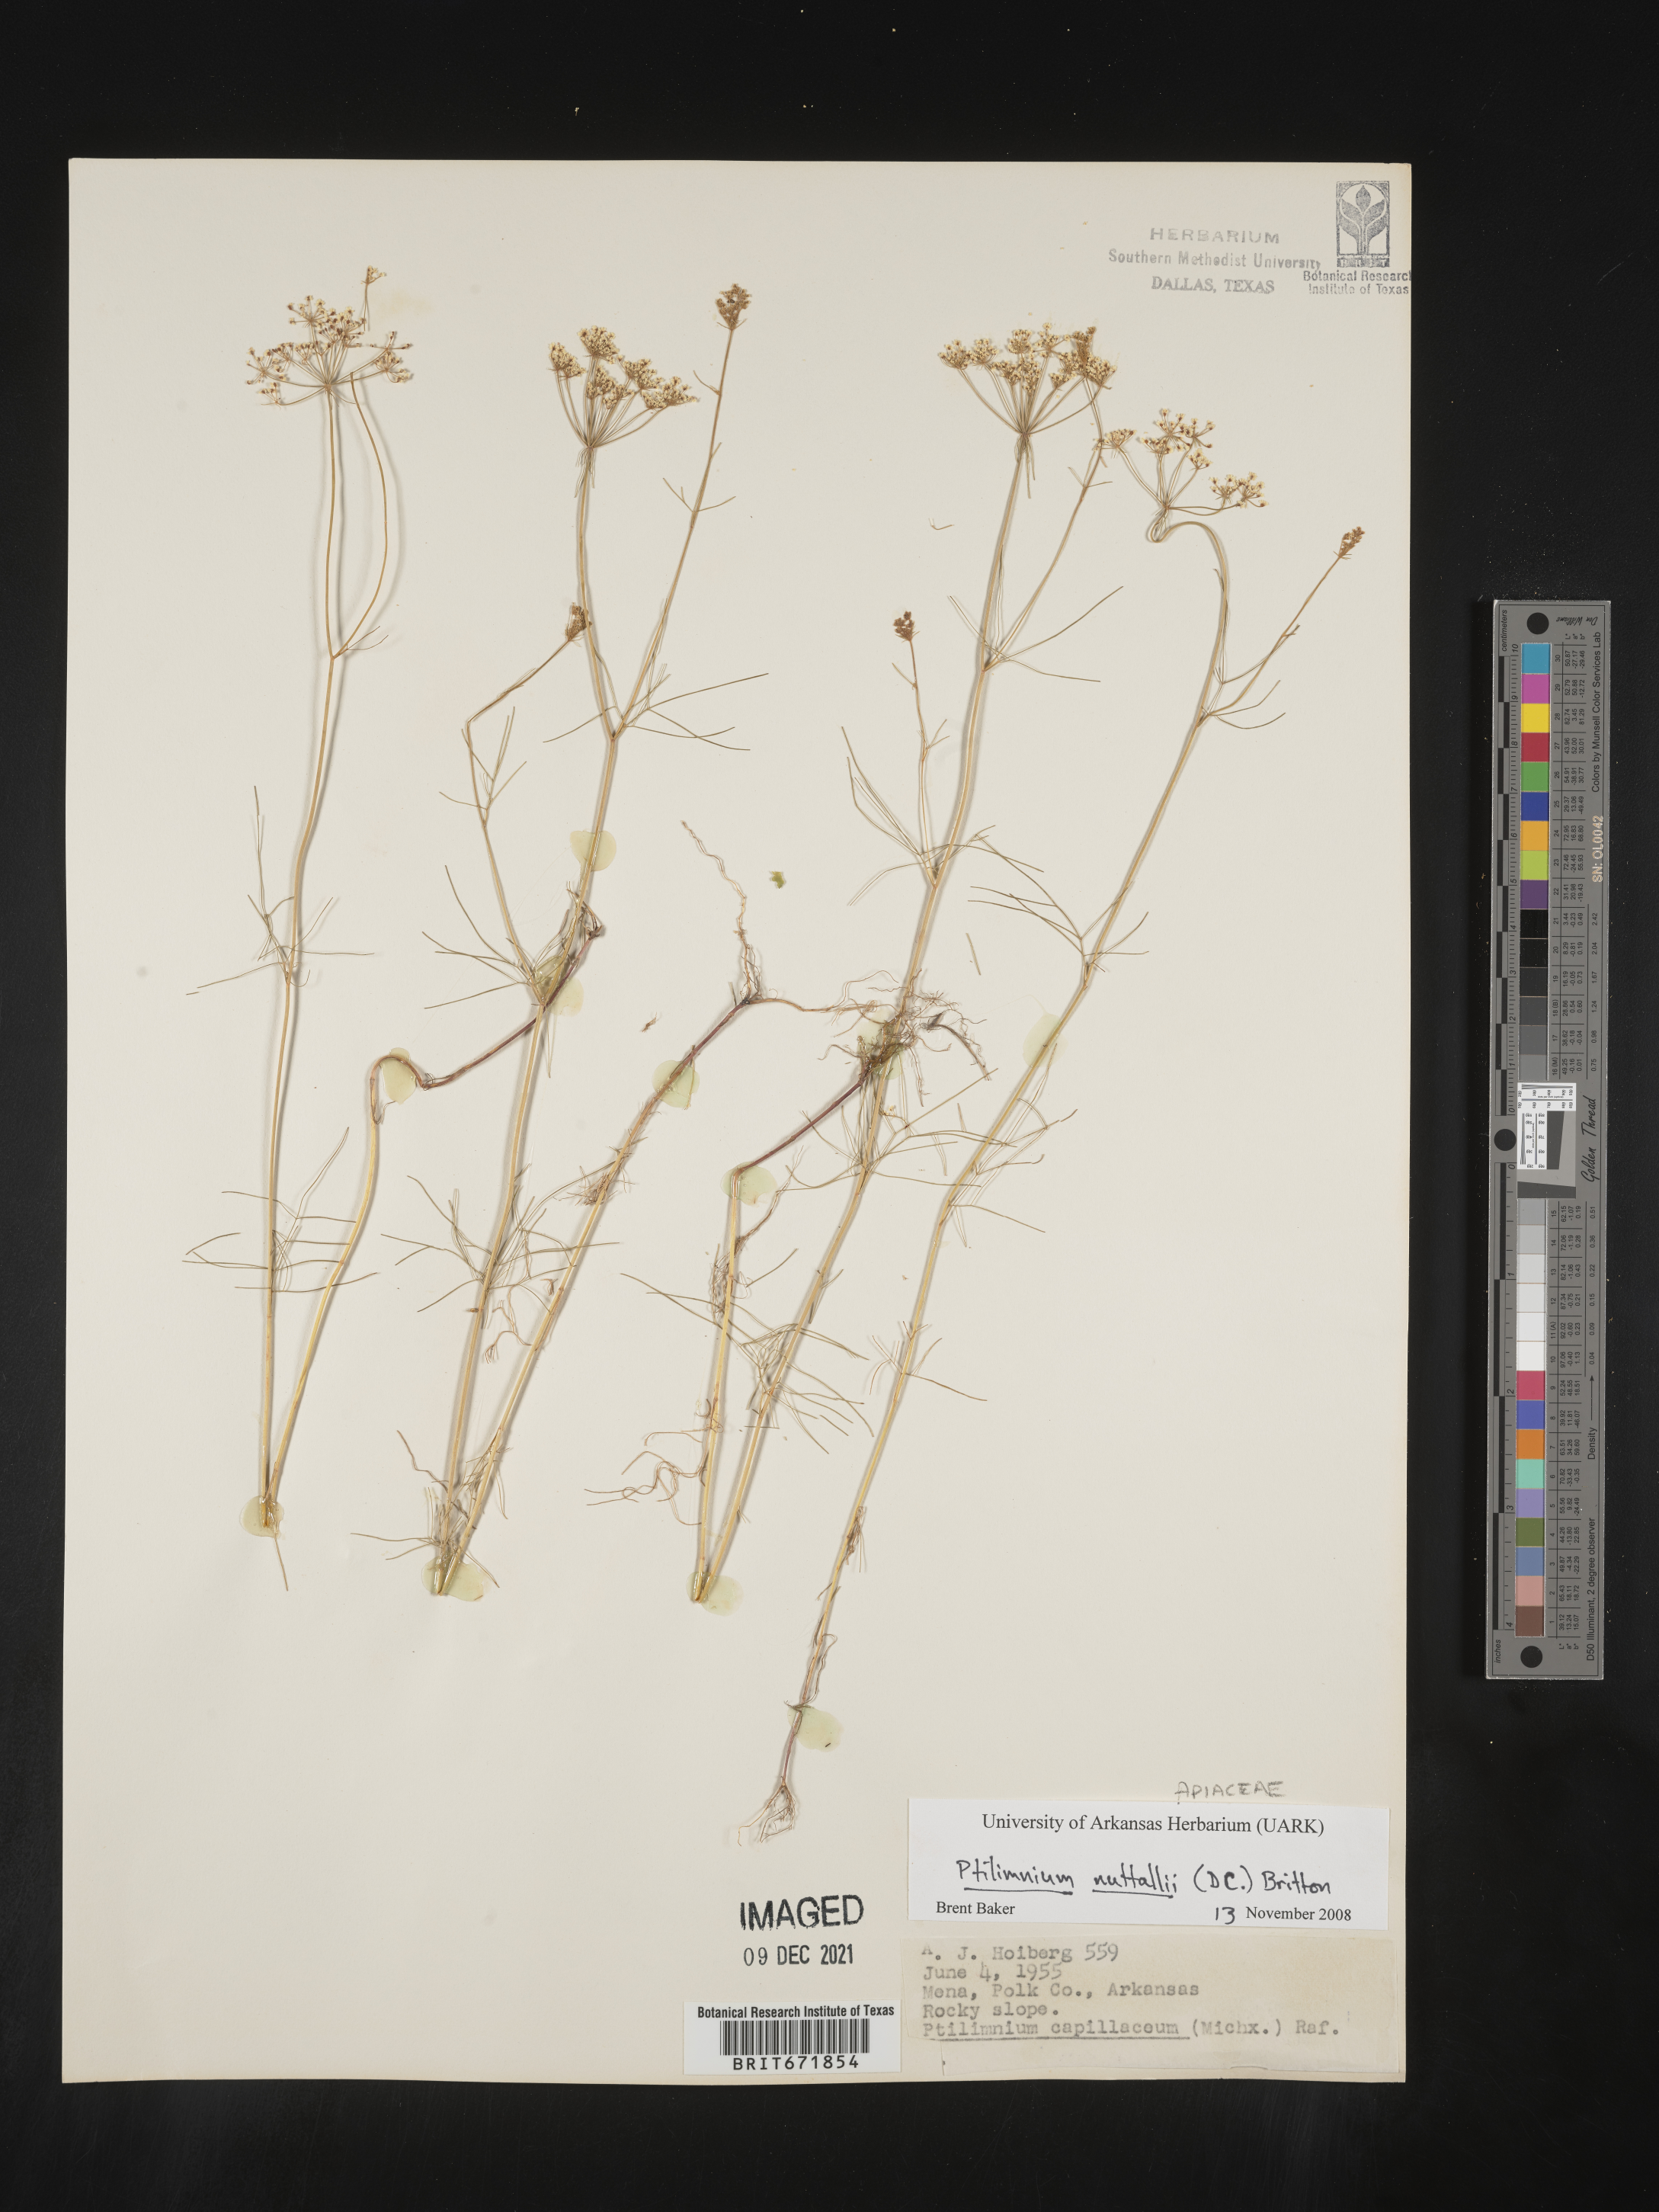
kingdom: Plantae
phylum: Tracheophyta
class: Magnoliopsida
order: Apiales
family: Apiaceae
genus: Ptilimnium
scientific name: Ptilimnium nuttallii
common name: Ozark bishop's-weed
